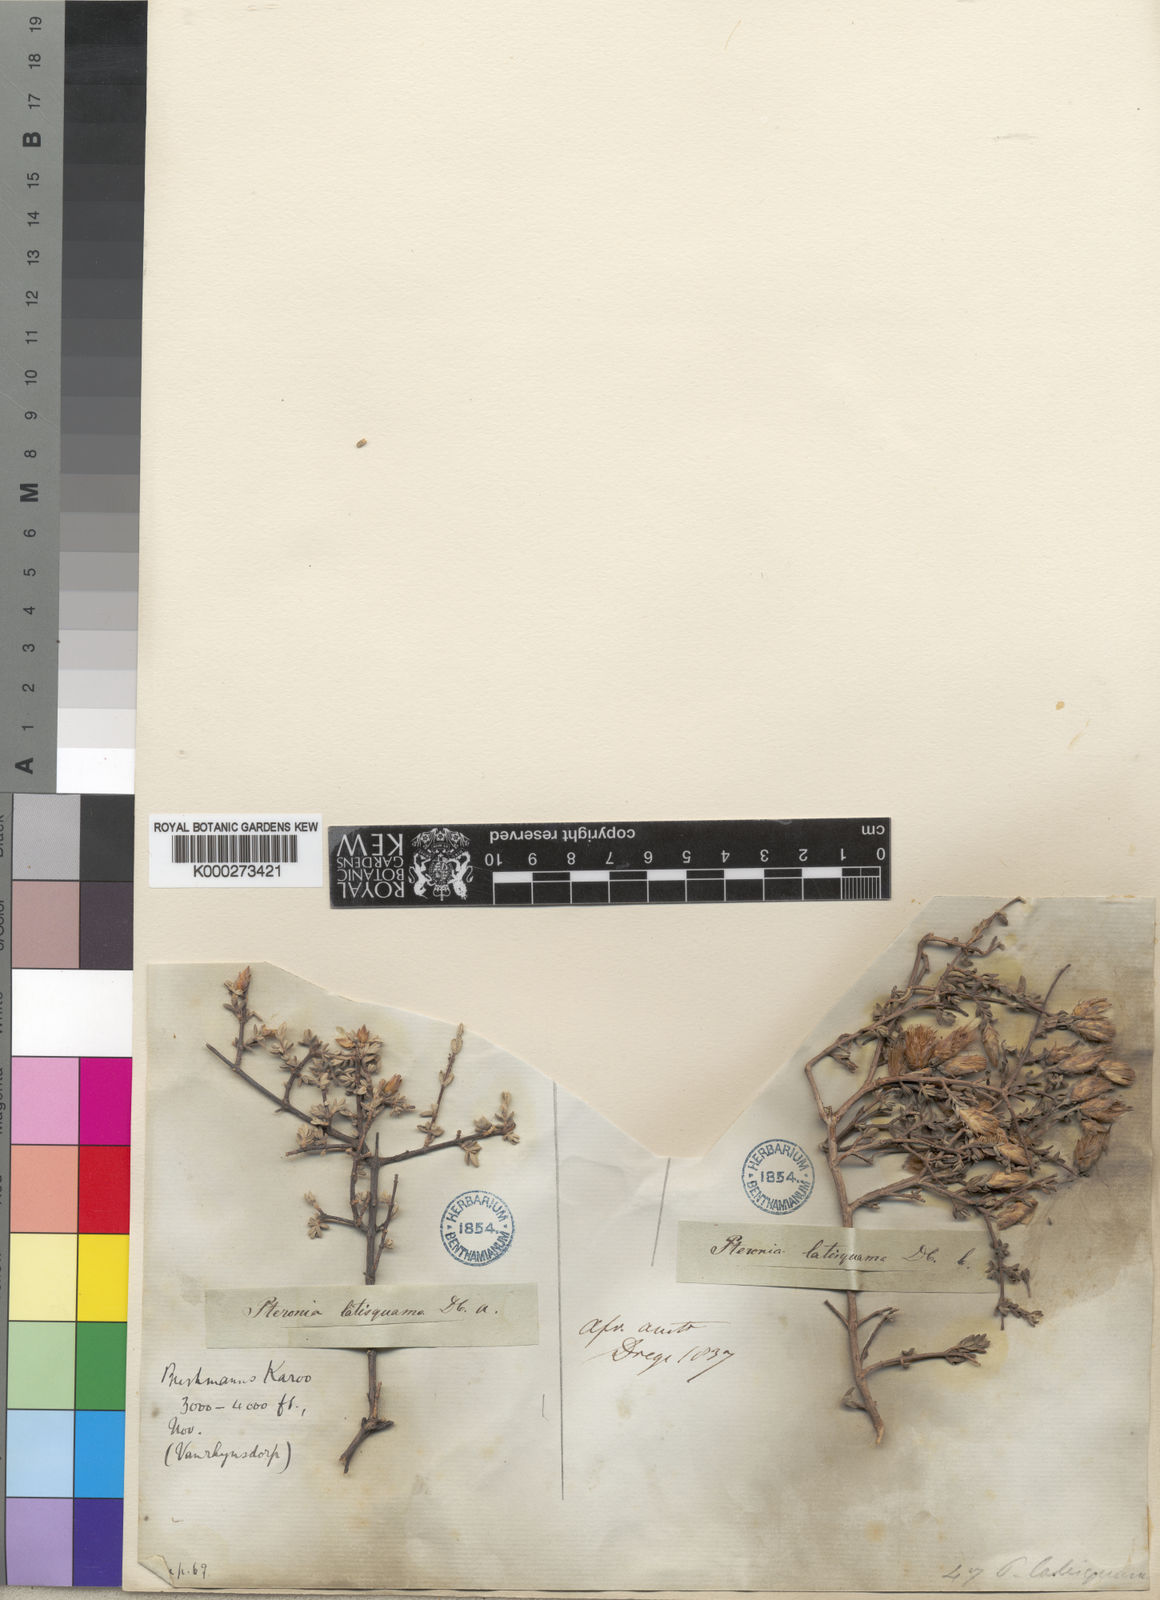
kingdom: Plantae
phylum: Tracheophyta
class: Magnoliopsida
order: Asterales
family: Asteraceae
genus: Pteronia
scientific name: Pteronia glauca
